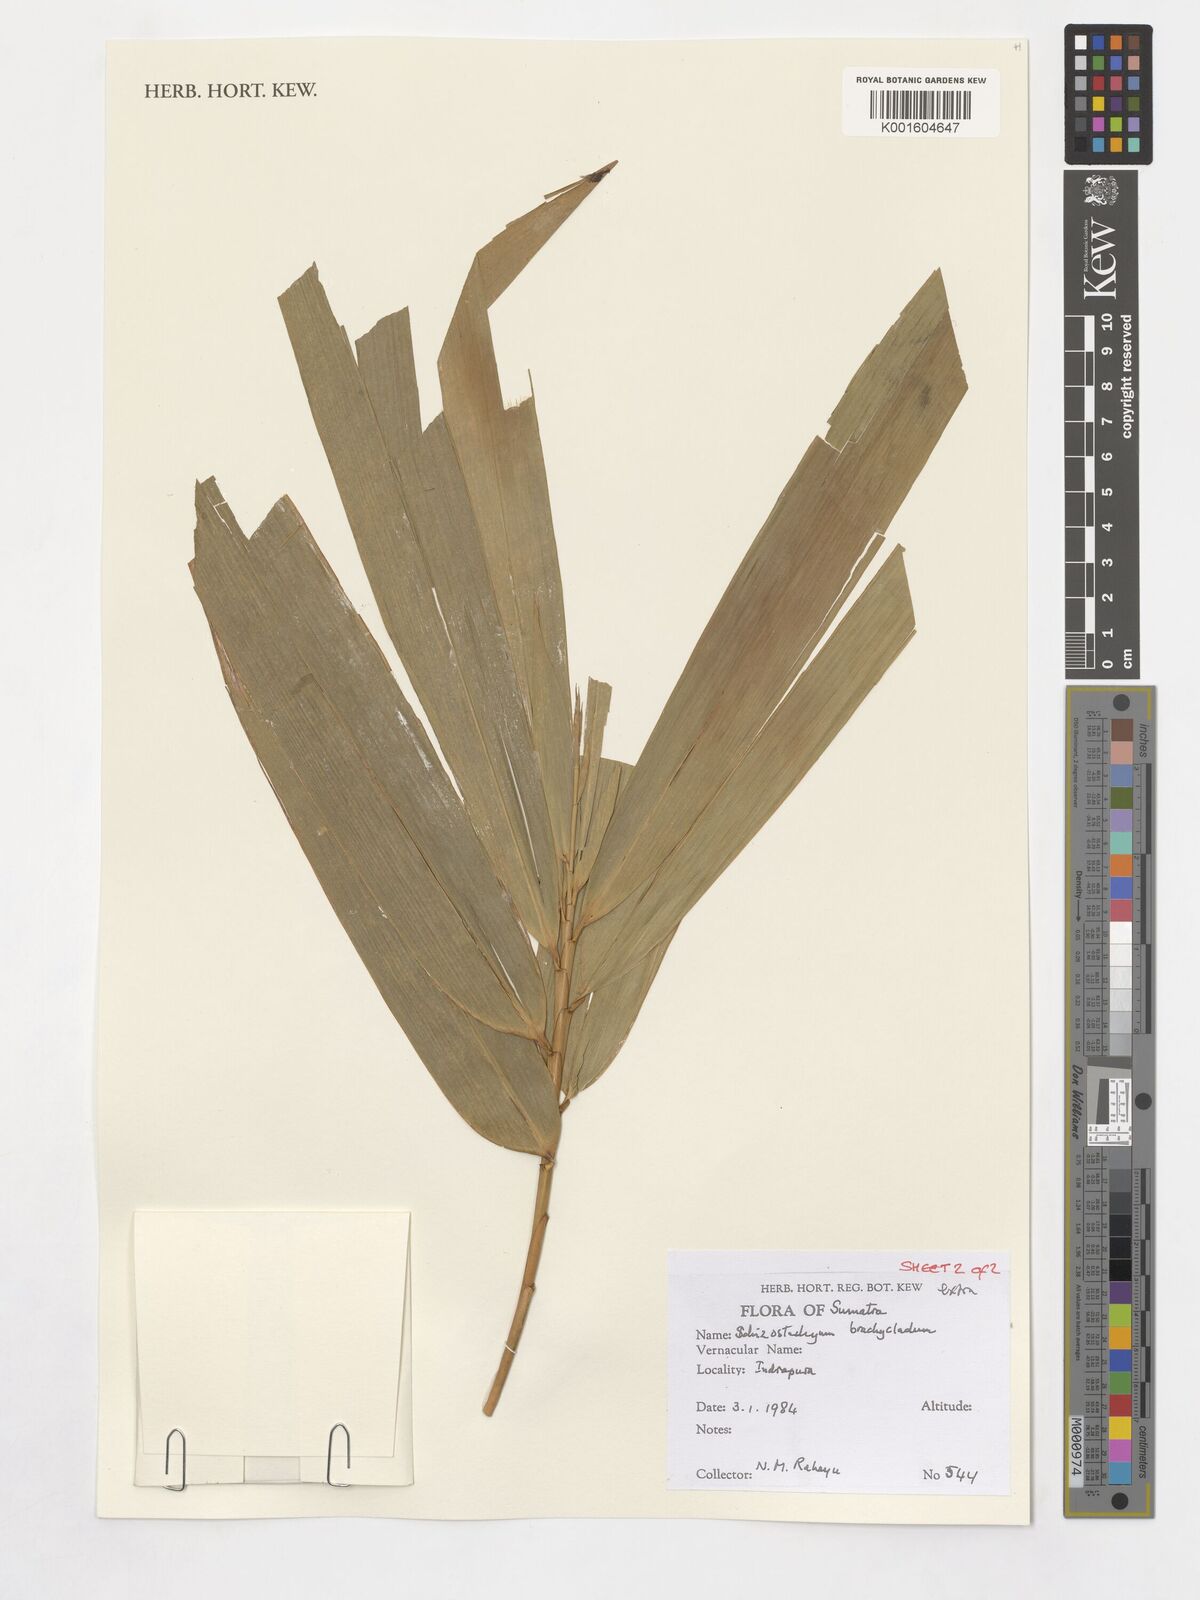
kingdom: Plantae
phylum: Tracheophyta
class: Liliopsida
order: Poales
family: Poaceae
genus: Schizostachyum
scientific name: Schizostachyum brachycladum
